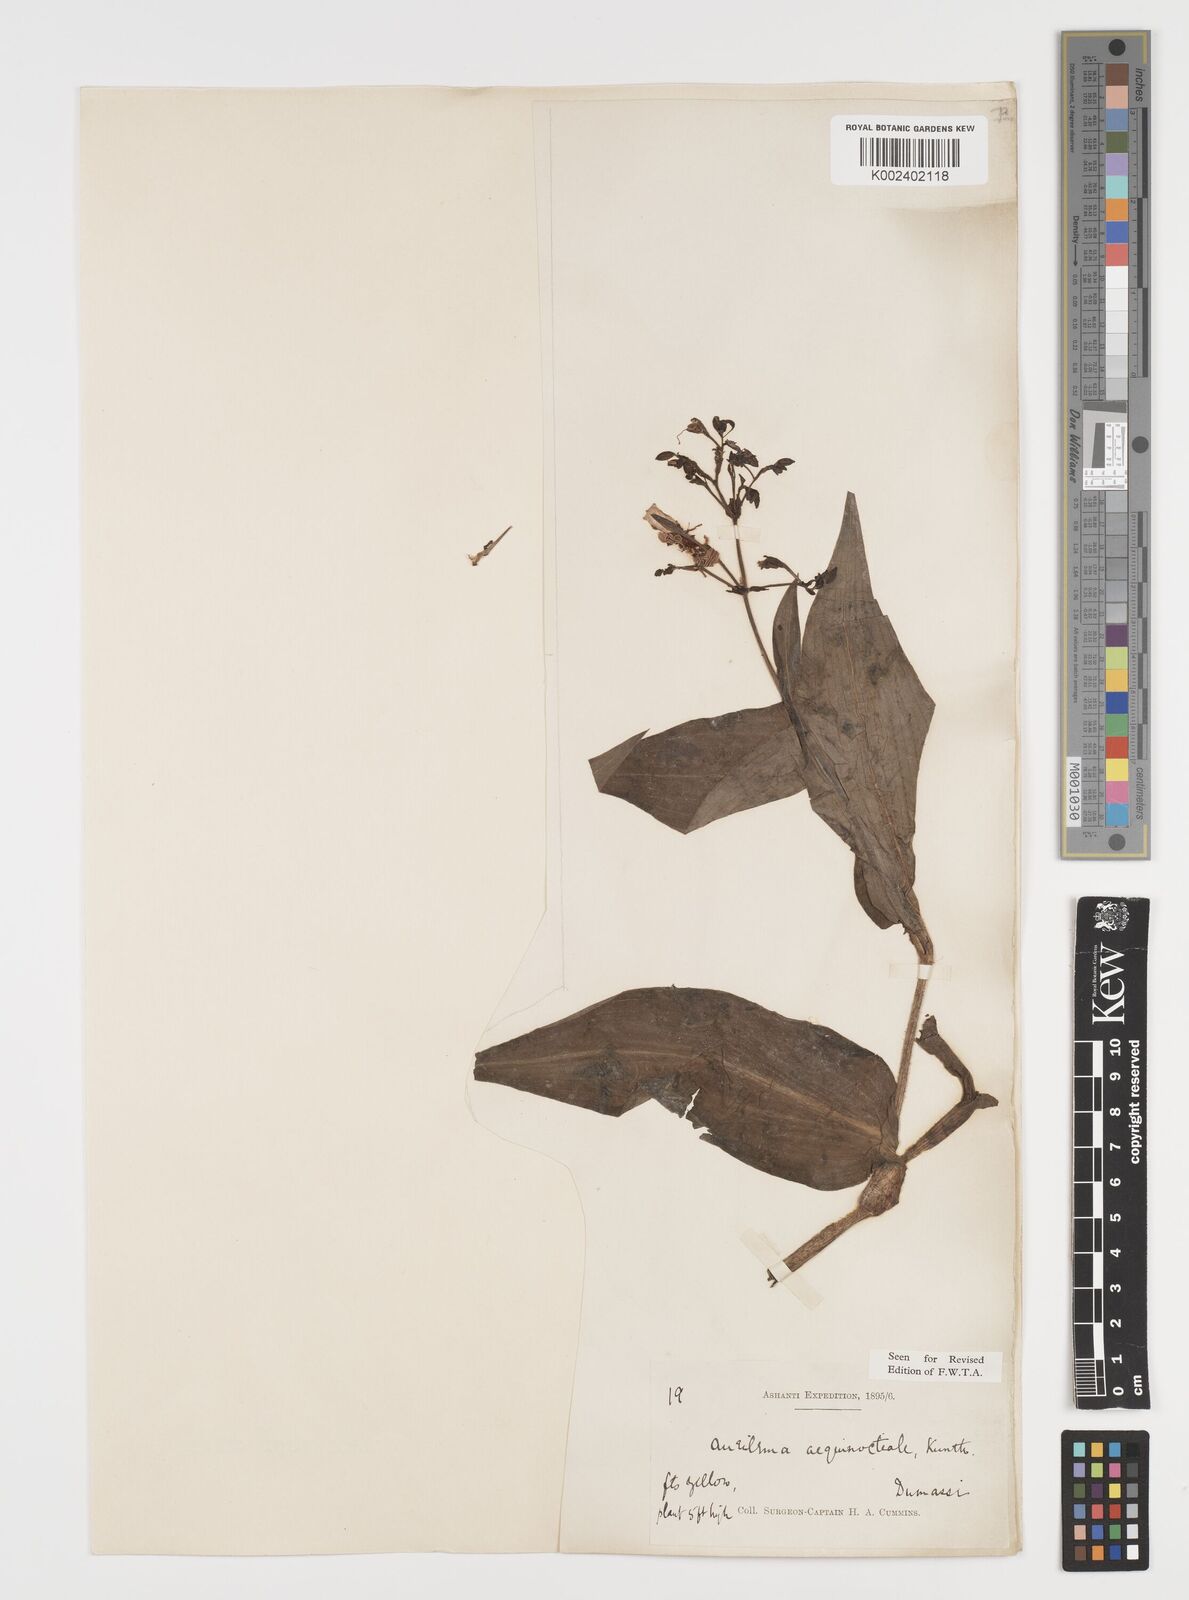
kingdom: Plantae
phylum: Tracheophyta
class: Liliopsida
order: Commelinales
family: Commelinaceae
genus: Aneilema
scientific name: Aneilema aequinoctiale
